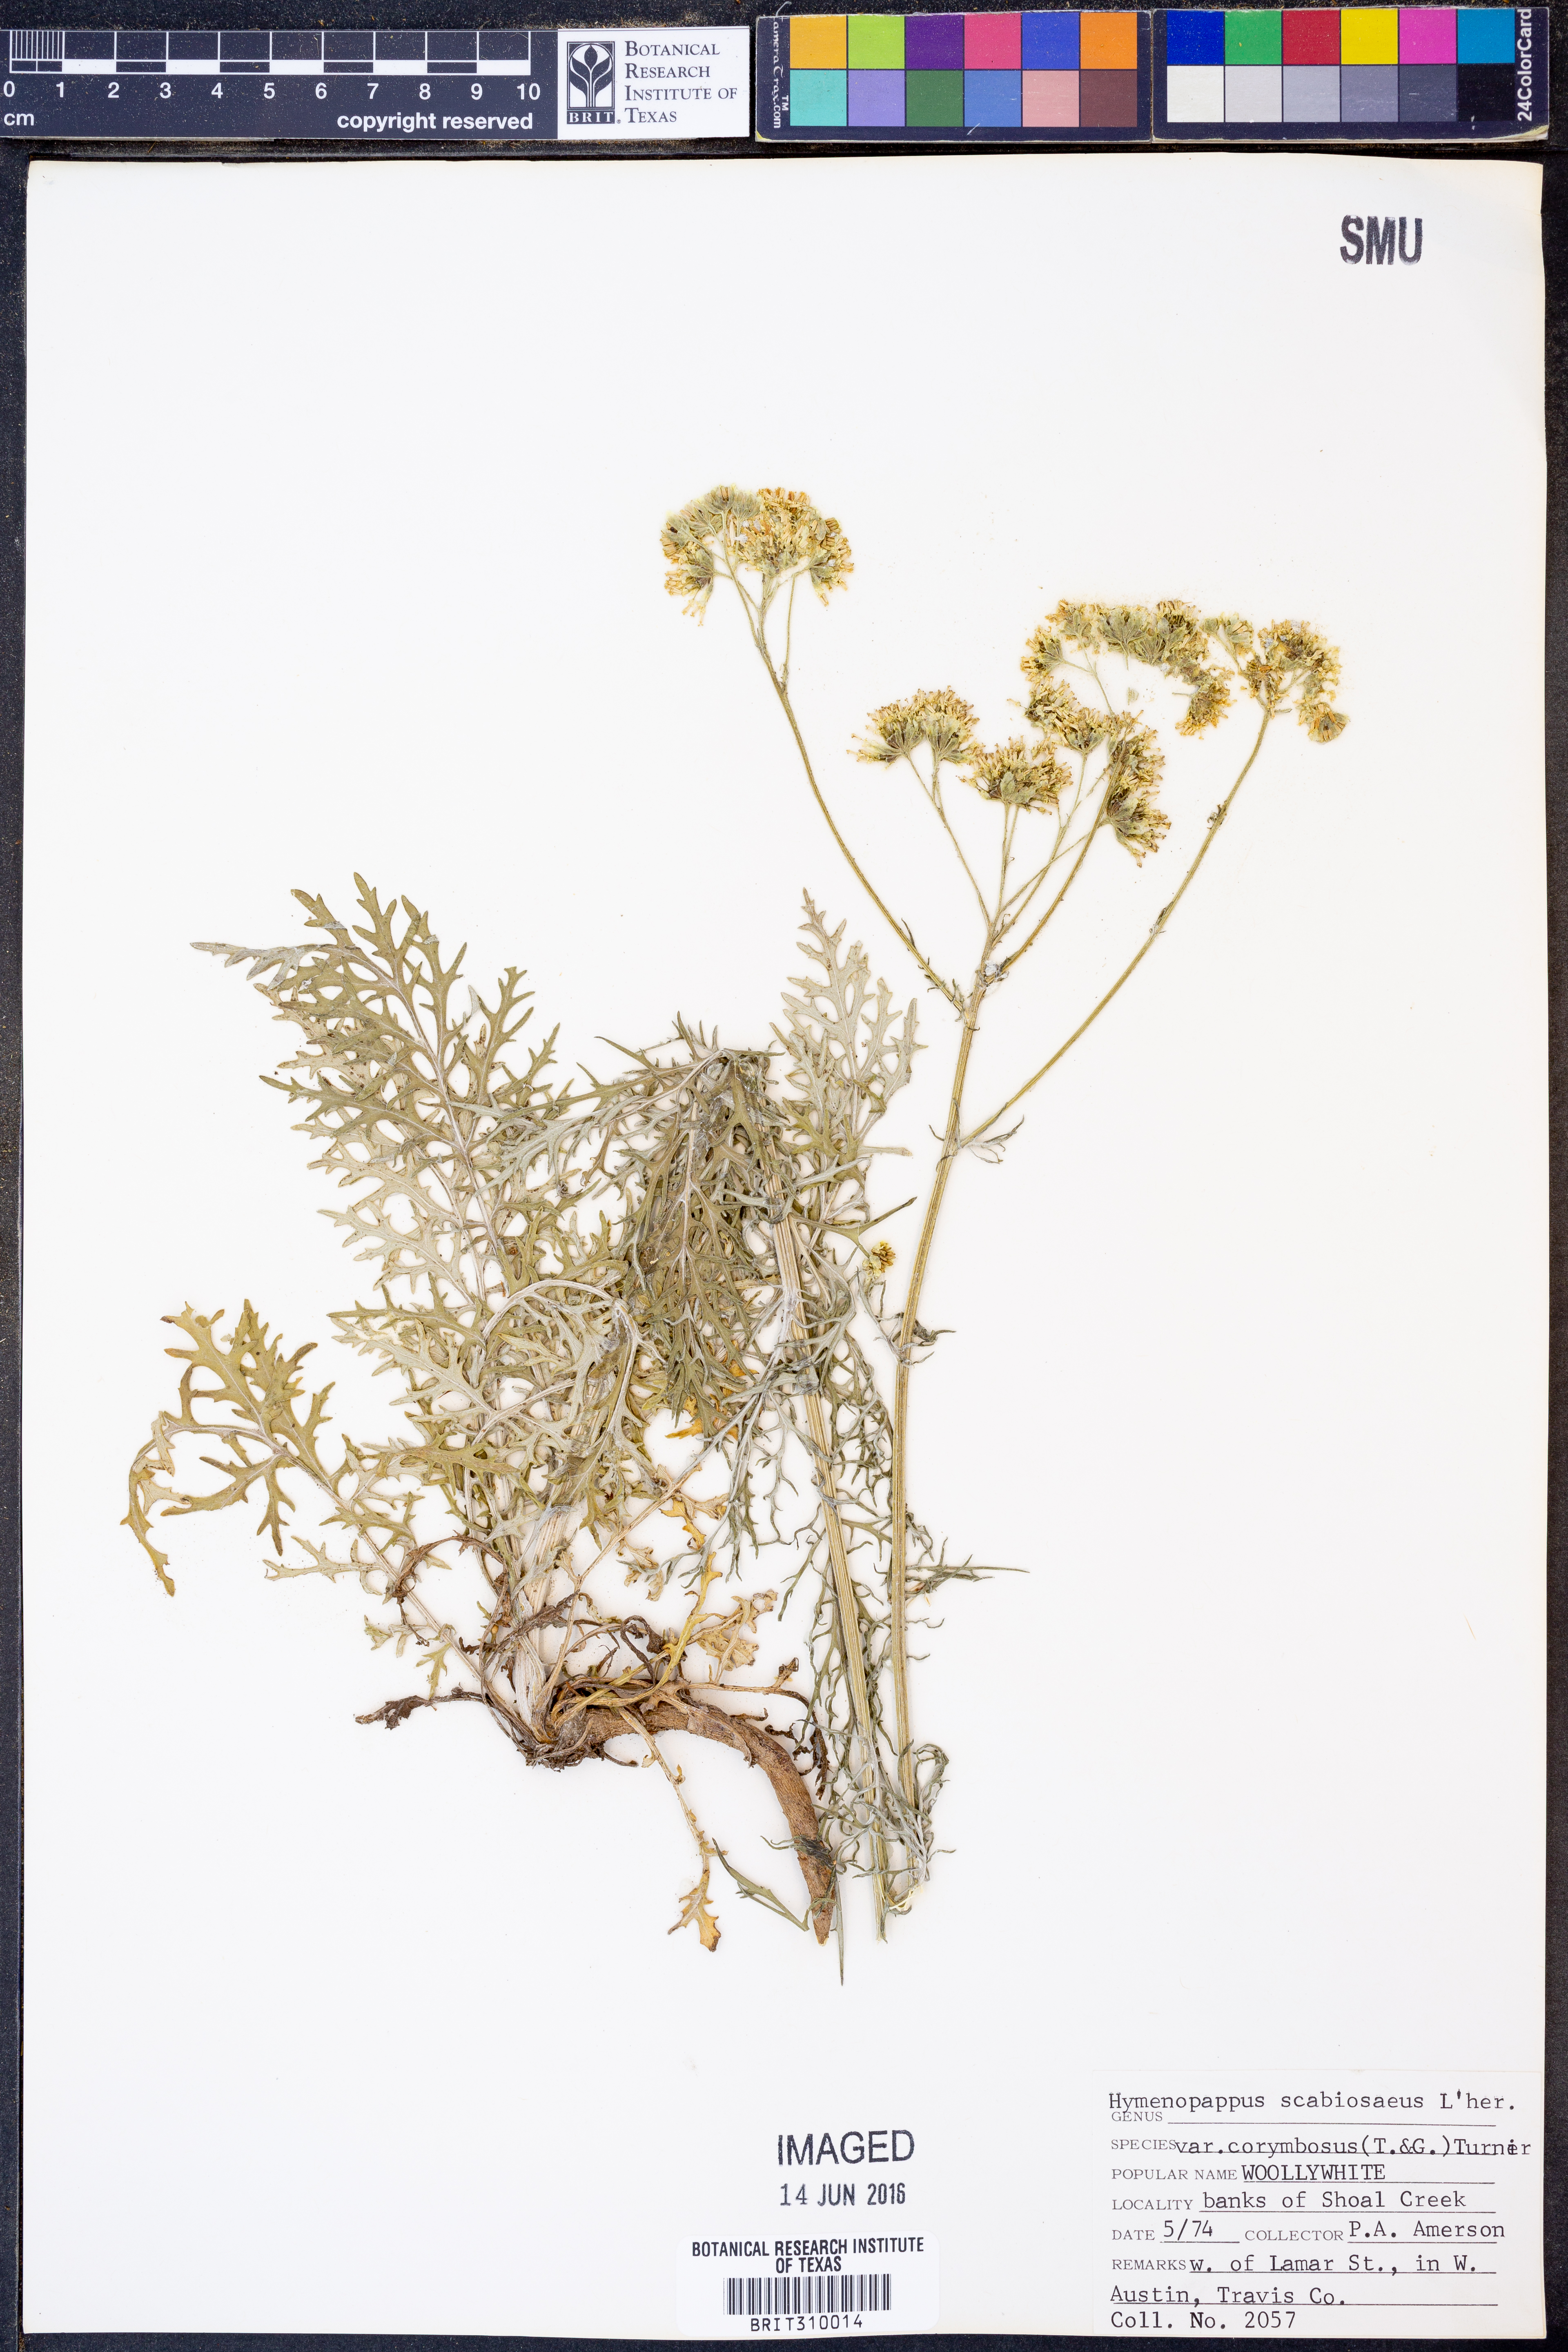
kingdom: Plantae
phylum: Tracheophyta
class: Magnoliopsida
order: Asterales
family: Asteraceae
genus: Hymenopappus
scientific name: Hymenopappus scabiosaeus
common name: Carolina woollywhite
